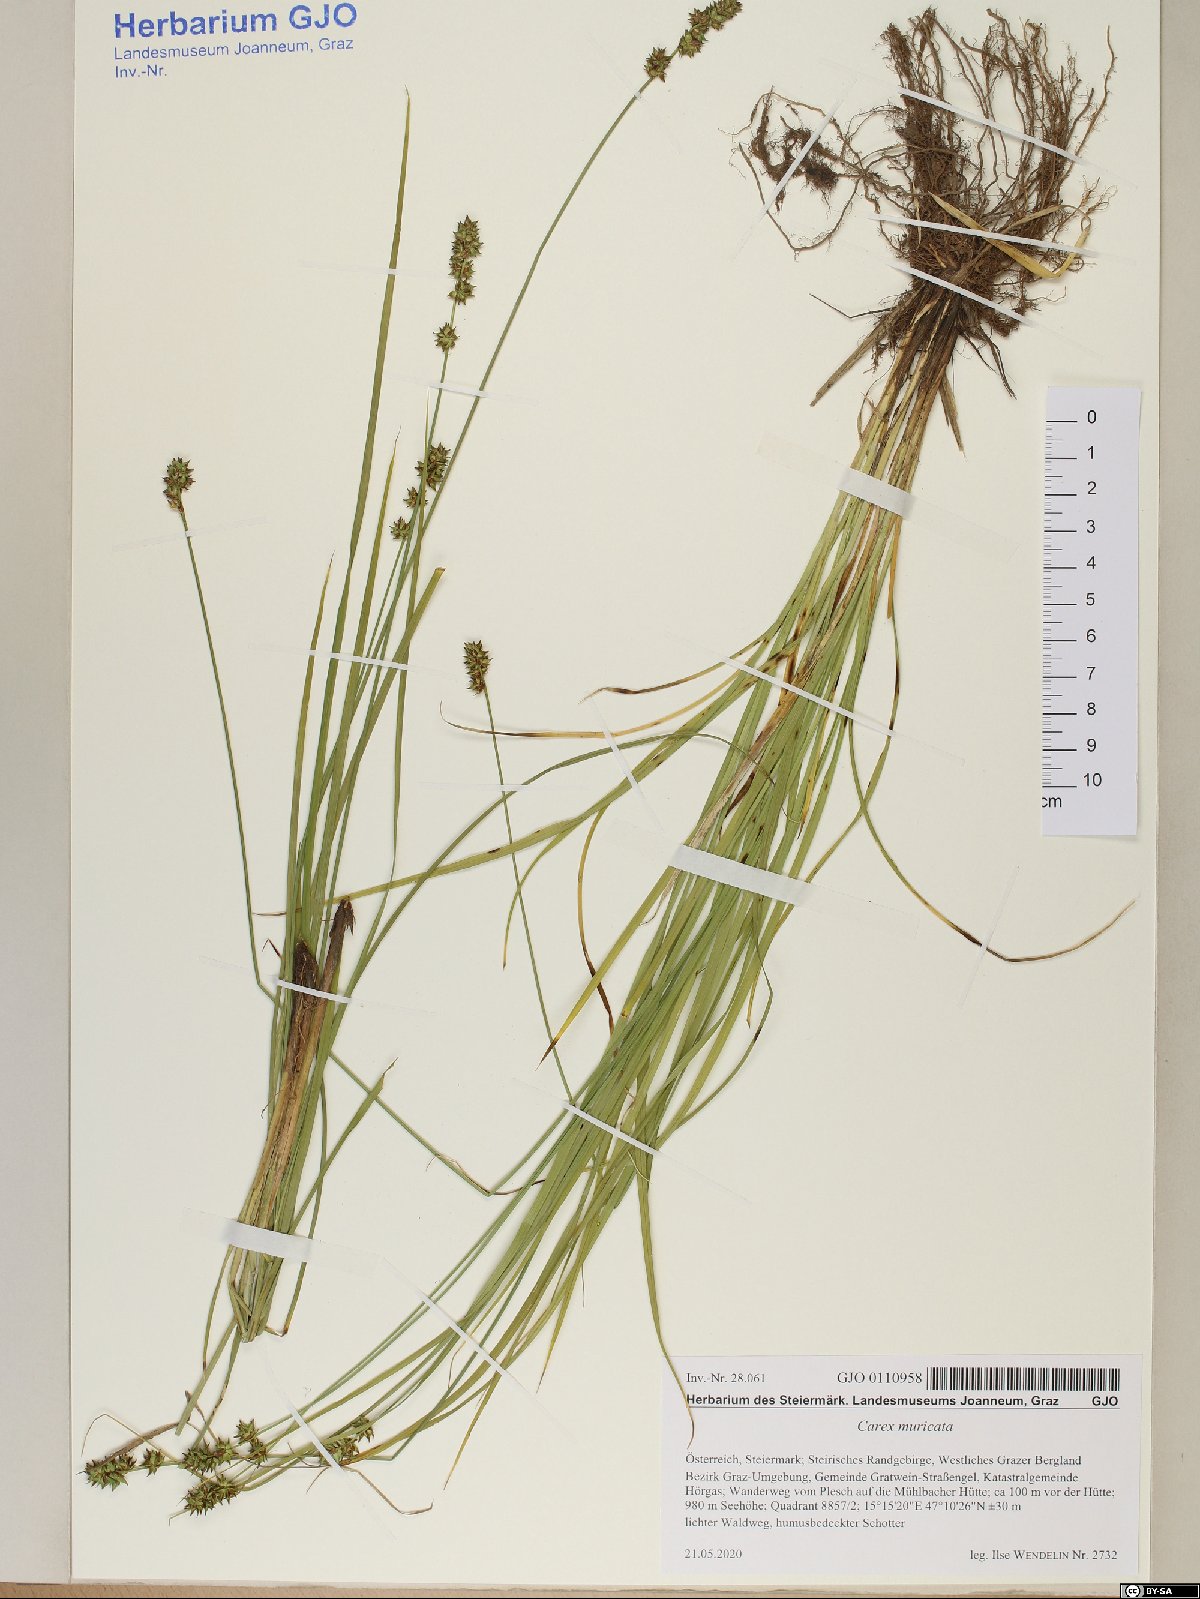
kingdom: Plantae
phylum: Tracheophyta
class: Liliopsida
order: Poales
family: Cyperaceae
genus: Carex
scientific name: Carex muricata
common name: Rough sedge
